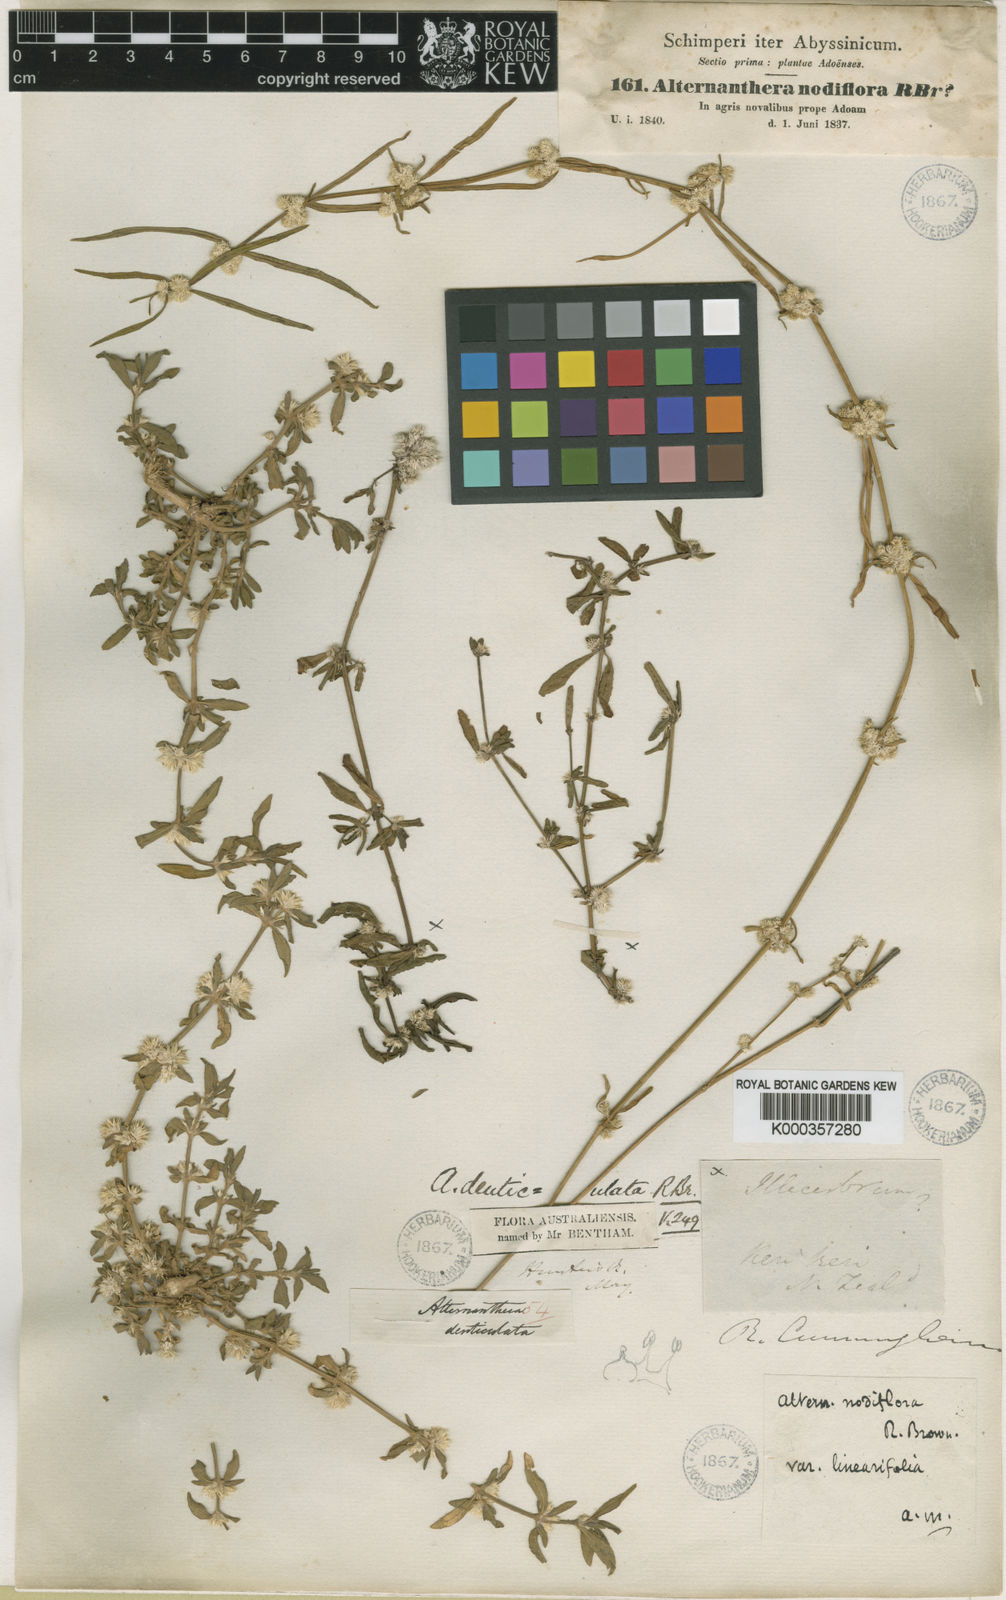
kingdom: Plantae
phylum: Tracheophyta
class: Magnoliopsida
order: Caryophyllales
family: Amaranthaceae
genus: Alternanthera
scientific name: Alternanthera denticulata
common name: Lesser joyweed
